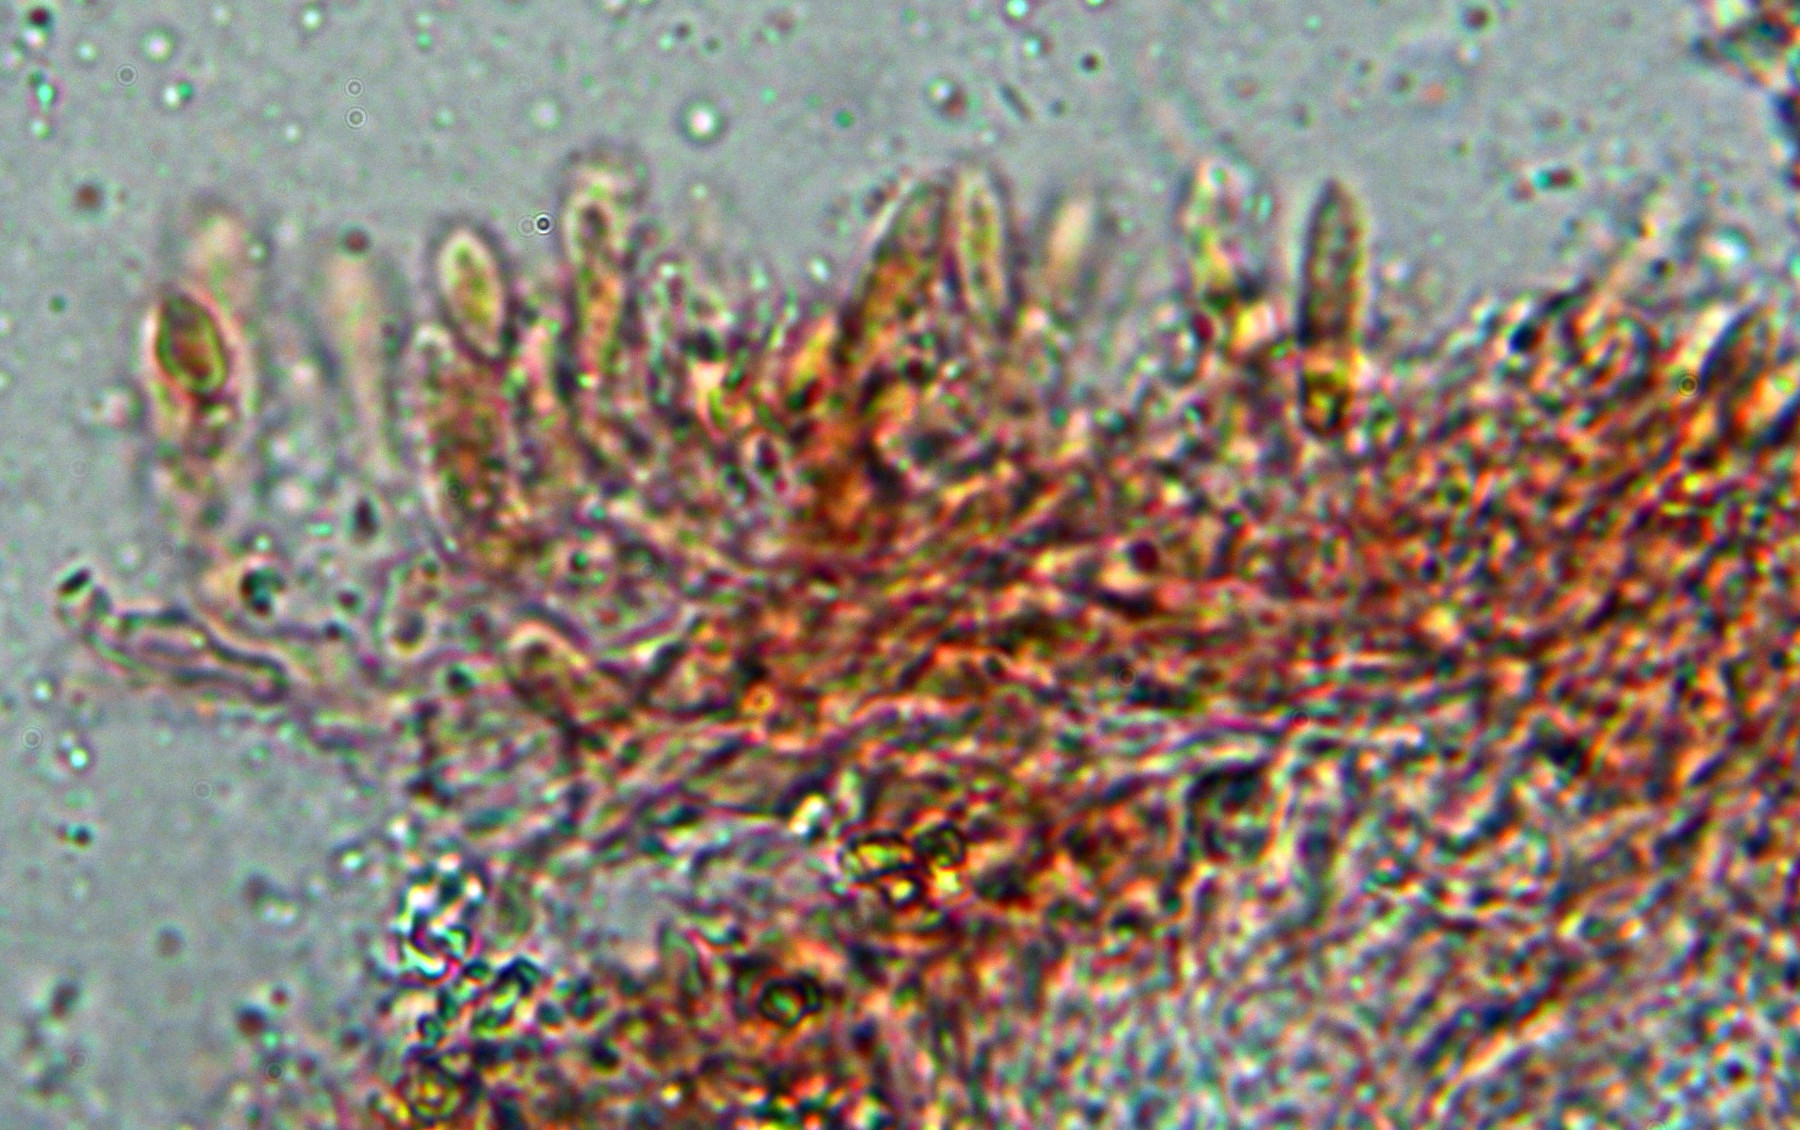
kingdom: Fungi
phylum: Basidiomycota
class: Agaricomycetes
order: Polyporales
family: Incrustoporiaceae
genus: Skeletocutis
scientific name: Skeletocutis amorpha
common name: orange krystalporesvamp
